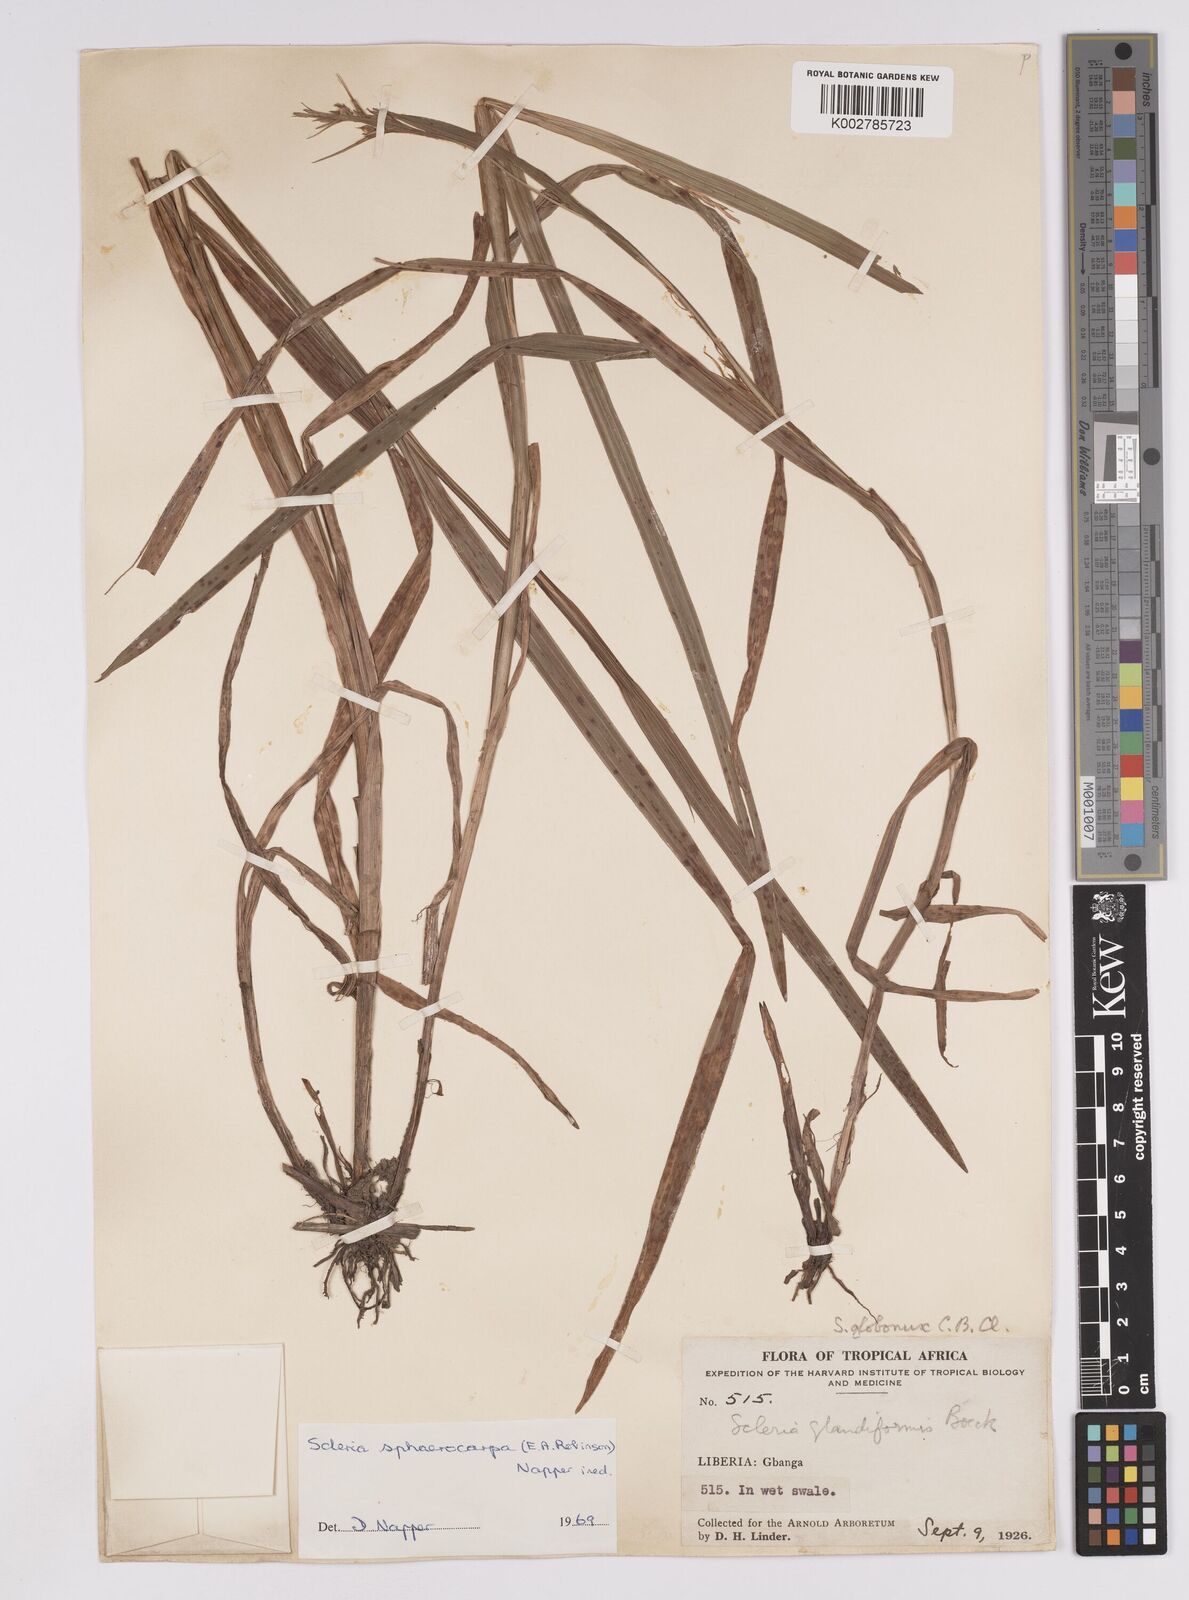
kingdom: Plantae
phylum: Tracheophyta
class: Liliopsida
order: Poales
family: Cyperaceae
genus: Scleria
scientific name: Scleria tessellata
